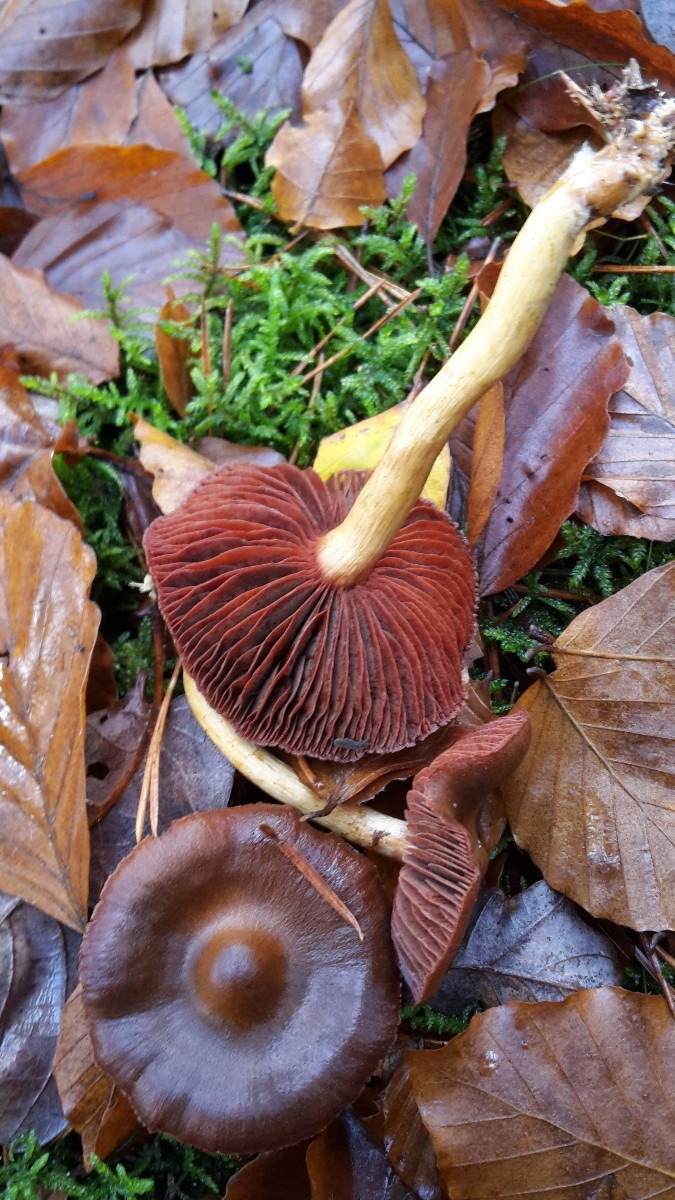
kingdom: Fungi
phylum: Basidiomycota
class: Agaricomycetes
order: Agaricales
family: Cortinariaceae
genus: Cortinarius
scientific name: Cortinarius
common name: cinnoberbladet slørhat
